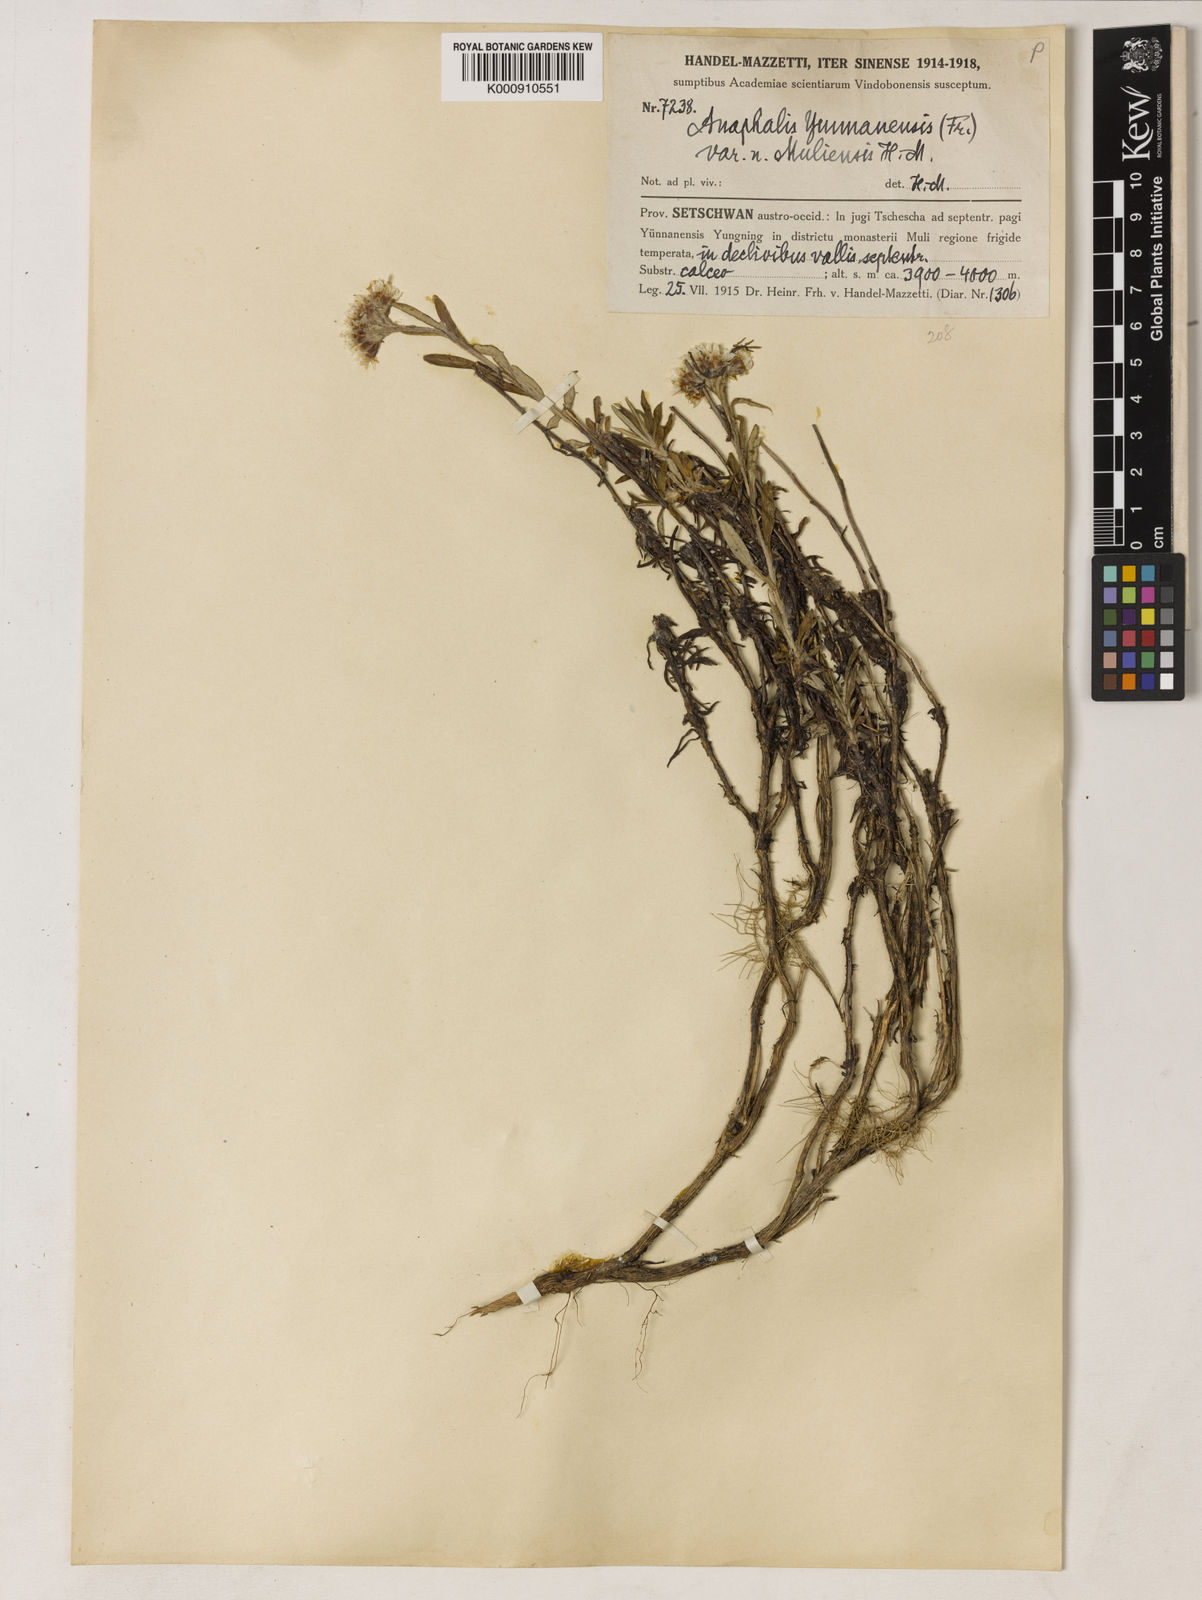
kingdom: Plantae
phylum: Tracheophyta
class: Magnoliopsida
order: Asterales
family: Asteraceae
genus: Anaphalis
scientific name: Anaphalis yunnanensis
